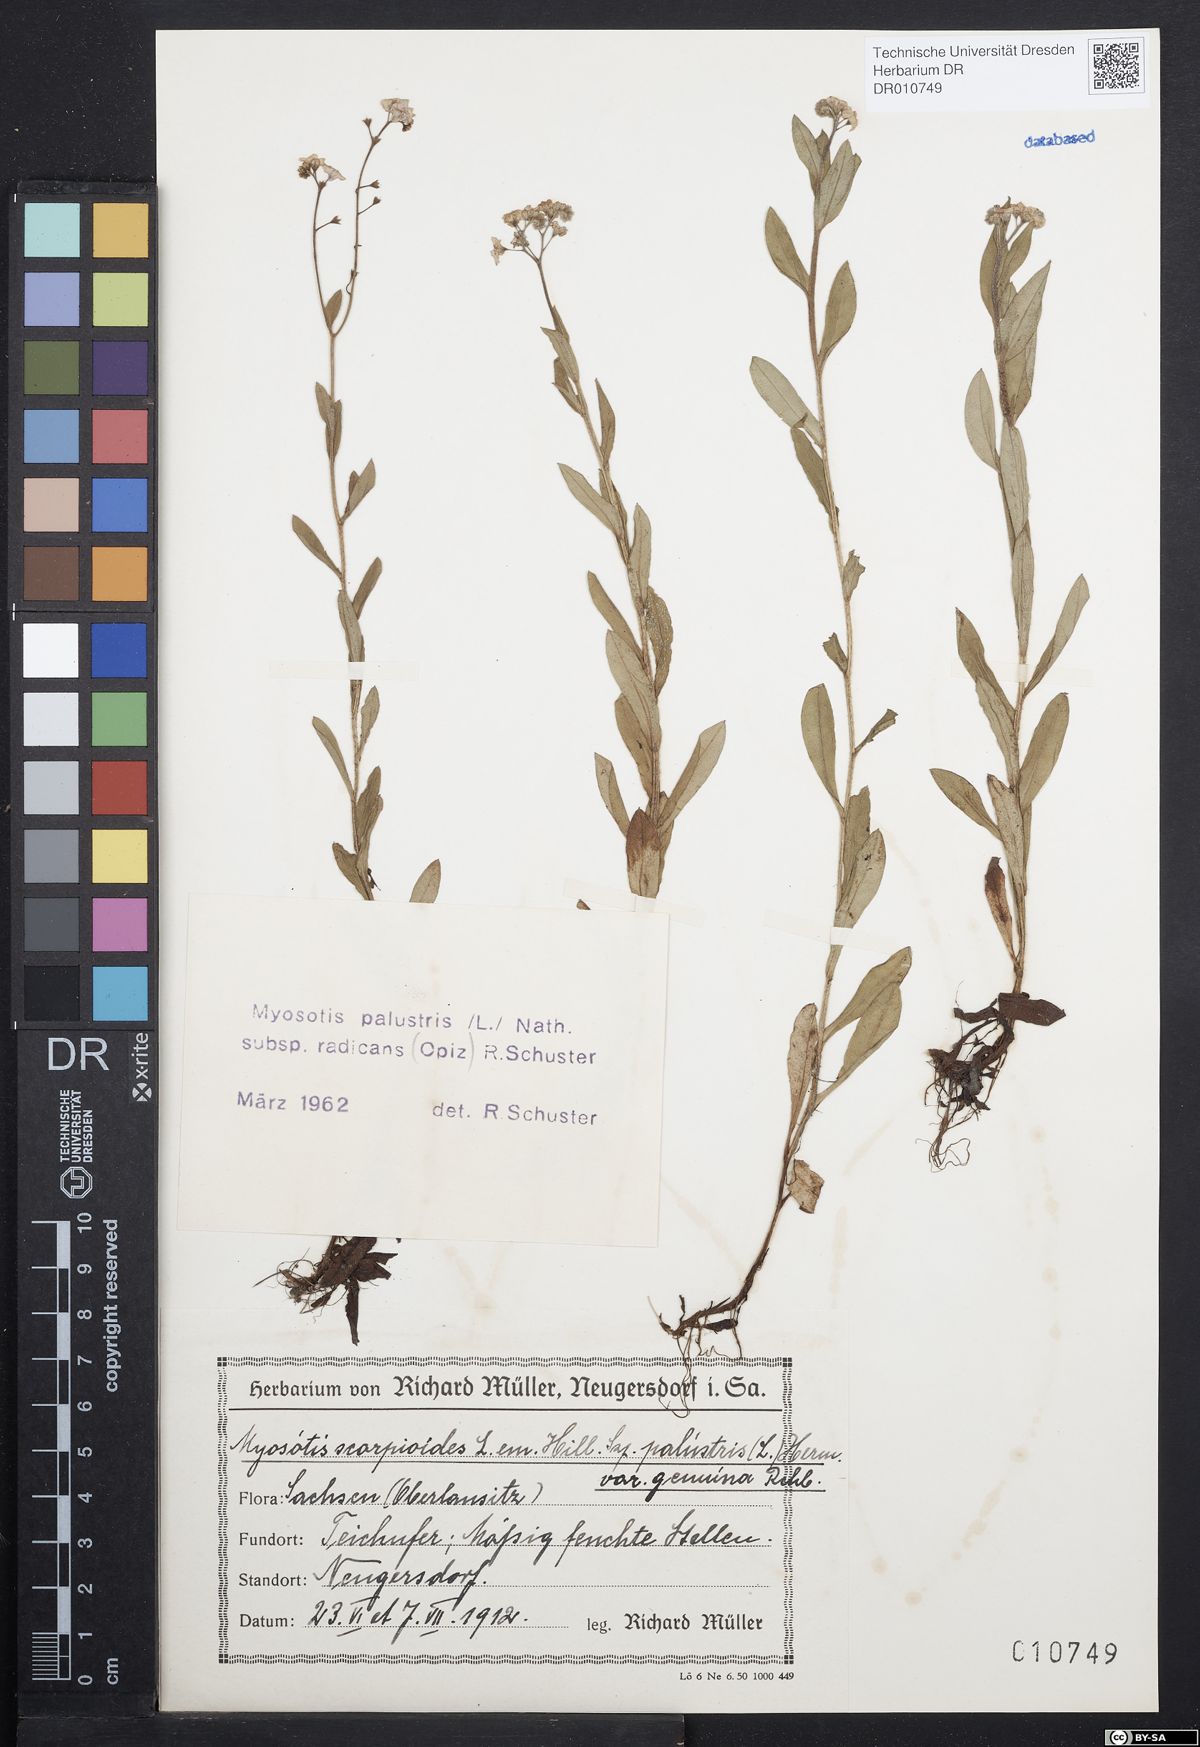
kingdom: Plantae
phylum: Tracheophyta
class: Magnoliopsida
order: Boraginales
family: Boraginaceae
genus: Myosotis
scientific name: Myosotis scorpioides
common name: Water forget-me-not
